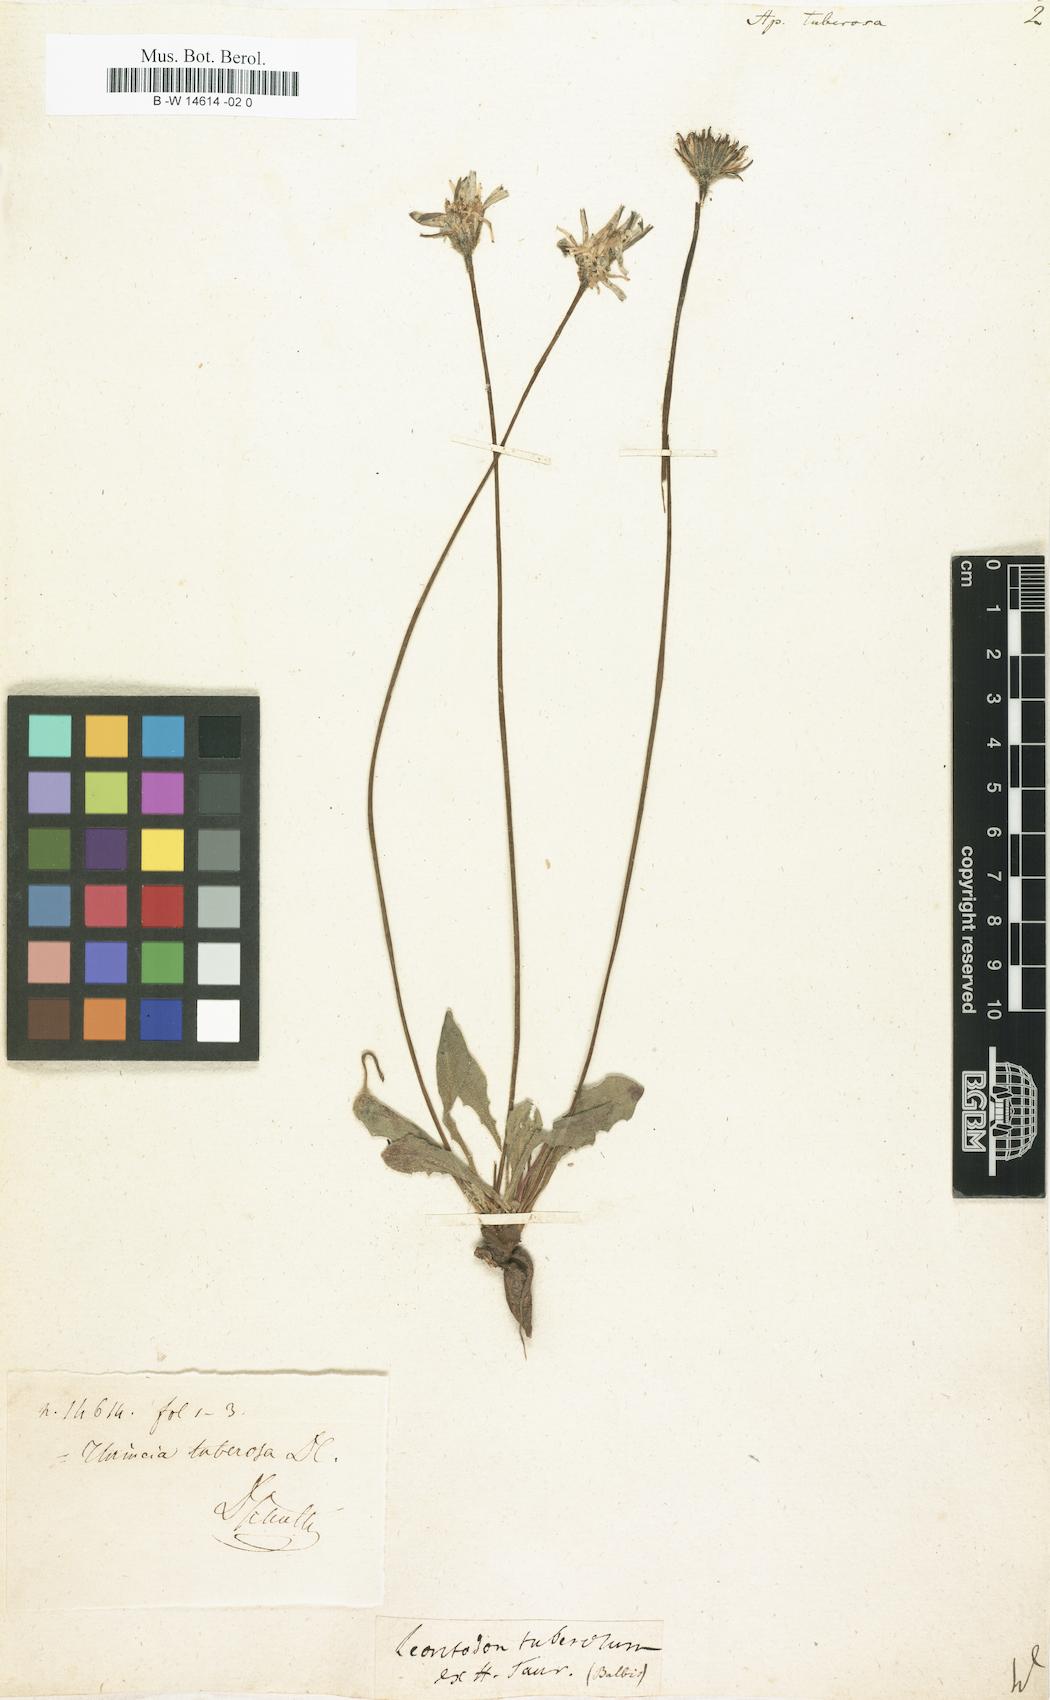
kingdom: Plantae
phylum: Tracheophyta
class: Magnoliopsida
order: Asterales
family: Asteraceae
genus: Thrincia
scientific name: Thrincia tuberosa
